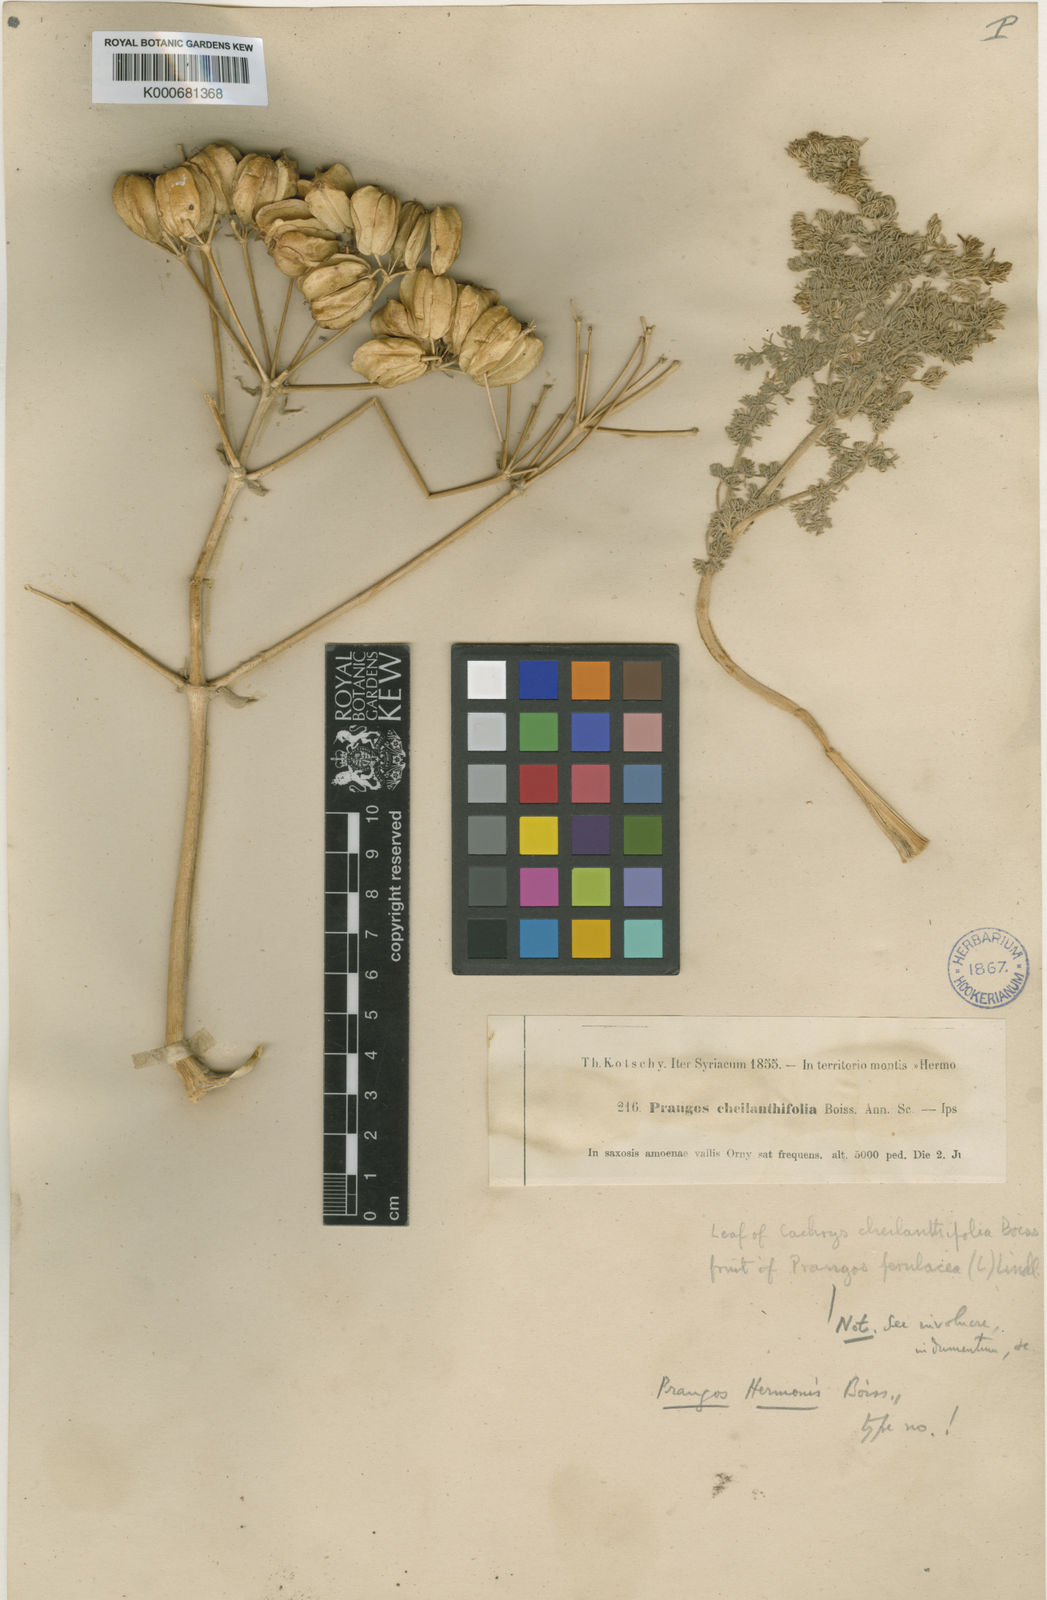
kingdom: Plantae
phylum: Tracheophyta
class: Magnoliopsida
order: Apiales
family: Apiaceae
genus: Prangos
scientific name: Prangos hermonis
